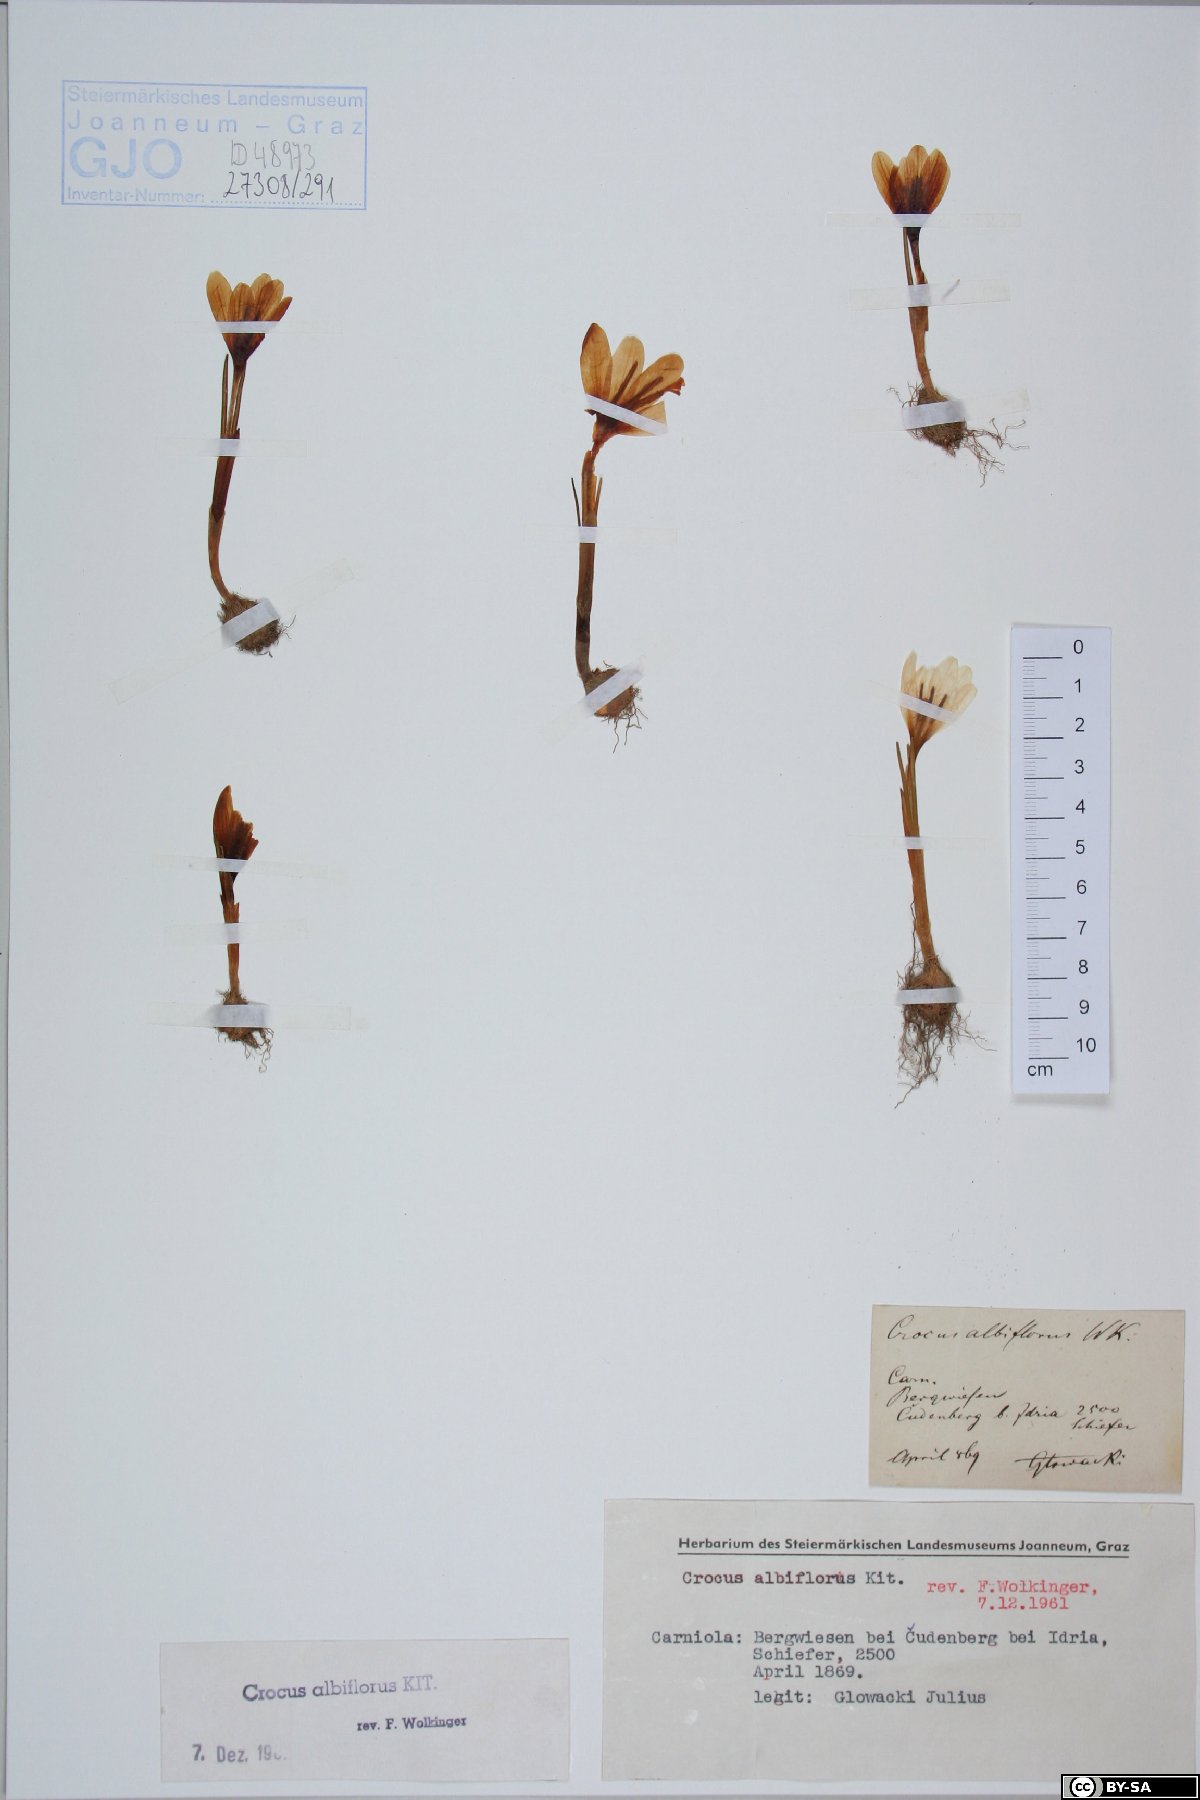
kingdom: Plantae
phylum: Tracheophyta
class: Liliopsida
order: Asparagales
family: Iridaceae
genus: Crocus
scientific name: Crocus vernus
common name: Spring crocus
